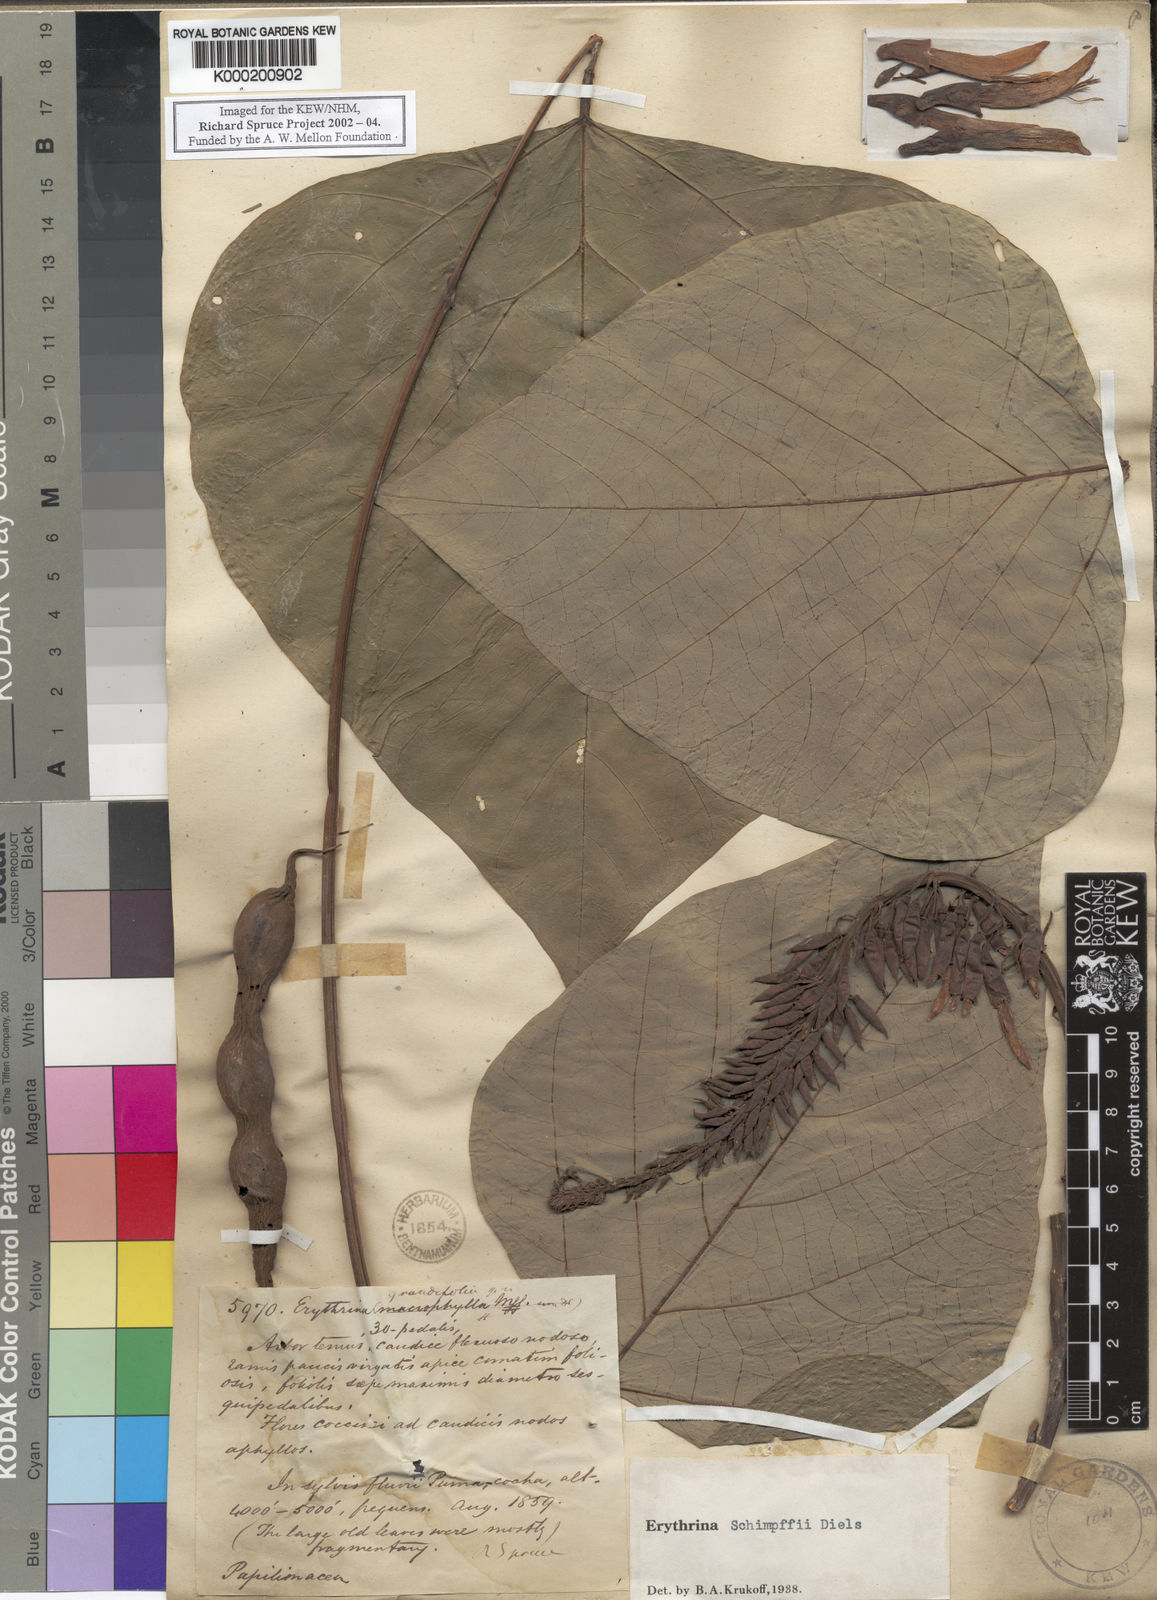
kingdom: Plantae
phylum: Tracheophyta
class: Magnoliopsida
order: Fabales
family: Fabaceae
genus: Erythrina
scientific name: Erythrina schimpffii
